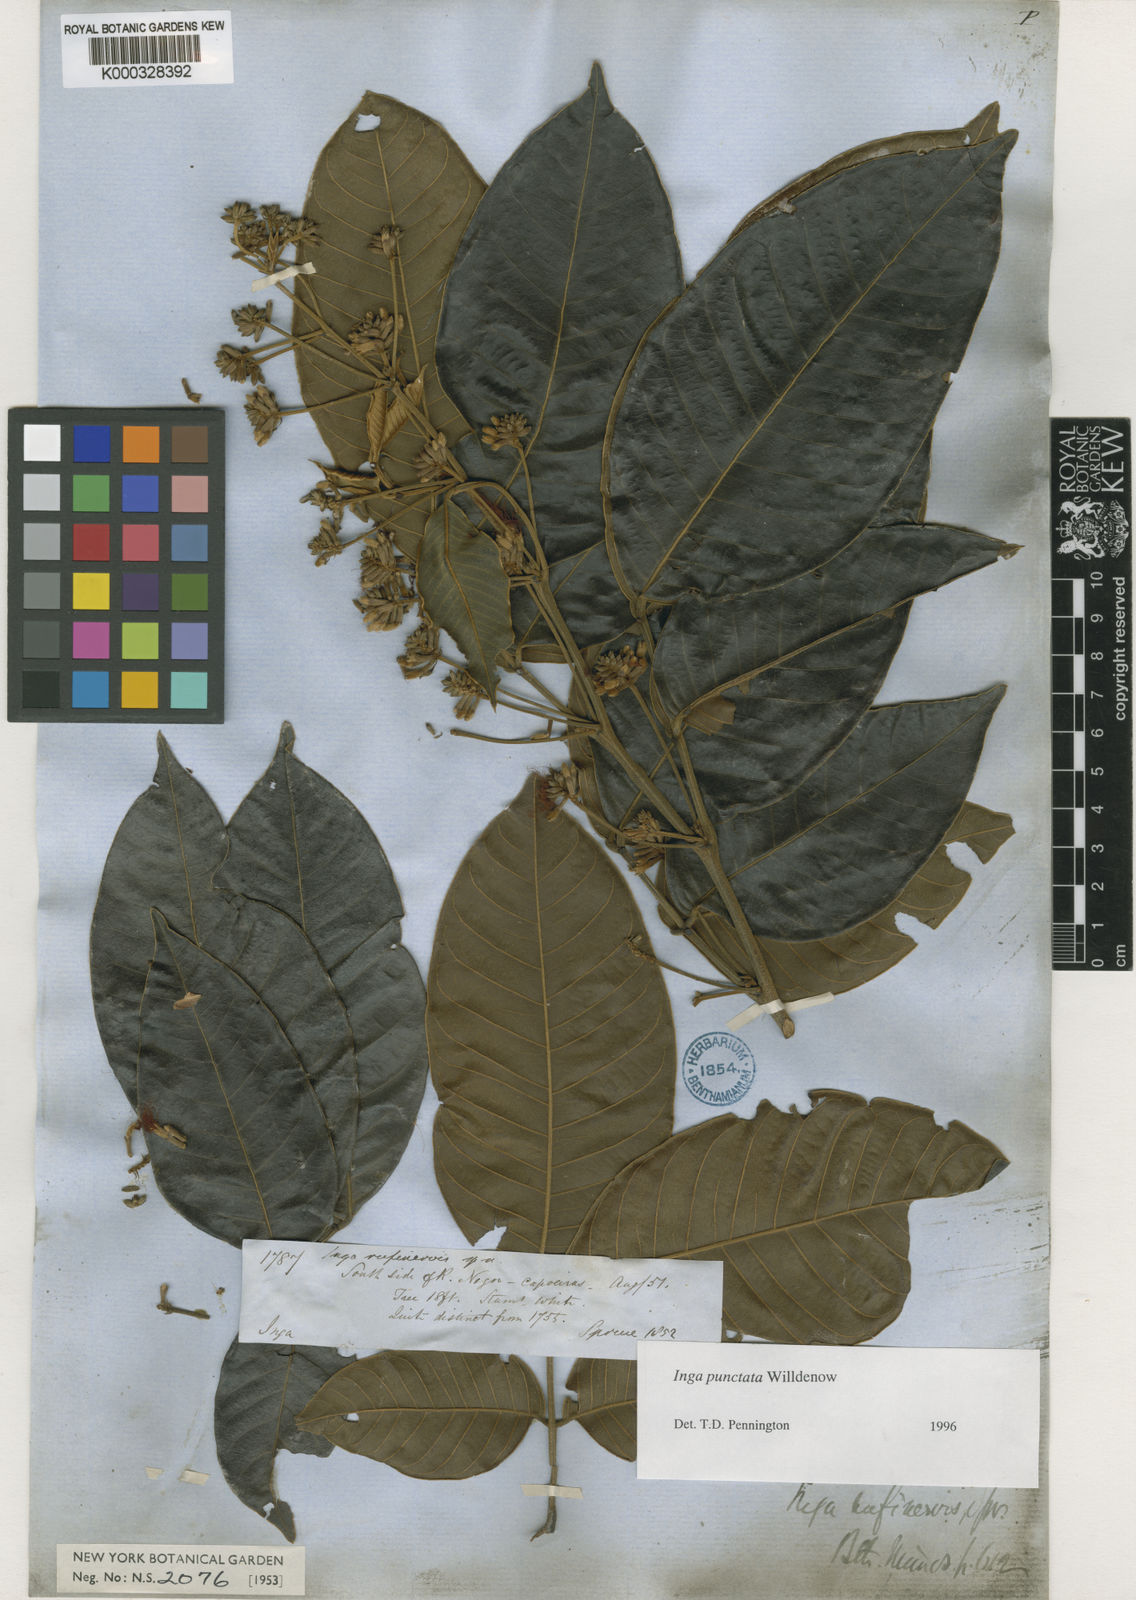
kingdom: Plantae
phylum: Tracheophyta
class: Magnoliopsida
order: Fabales
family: Fabaceae
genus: Inga
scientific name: Inga punctata
